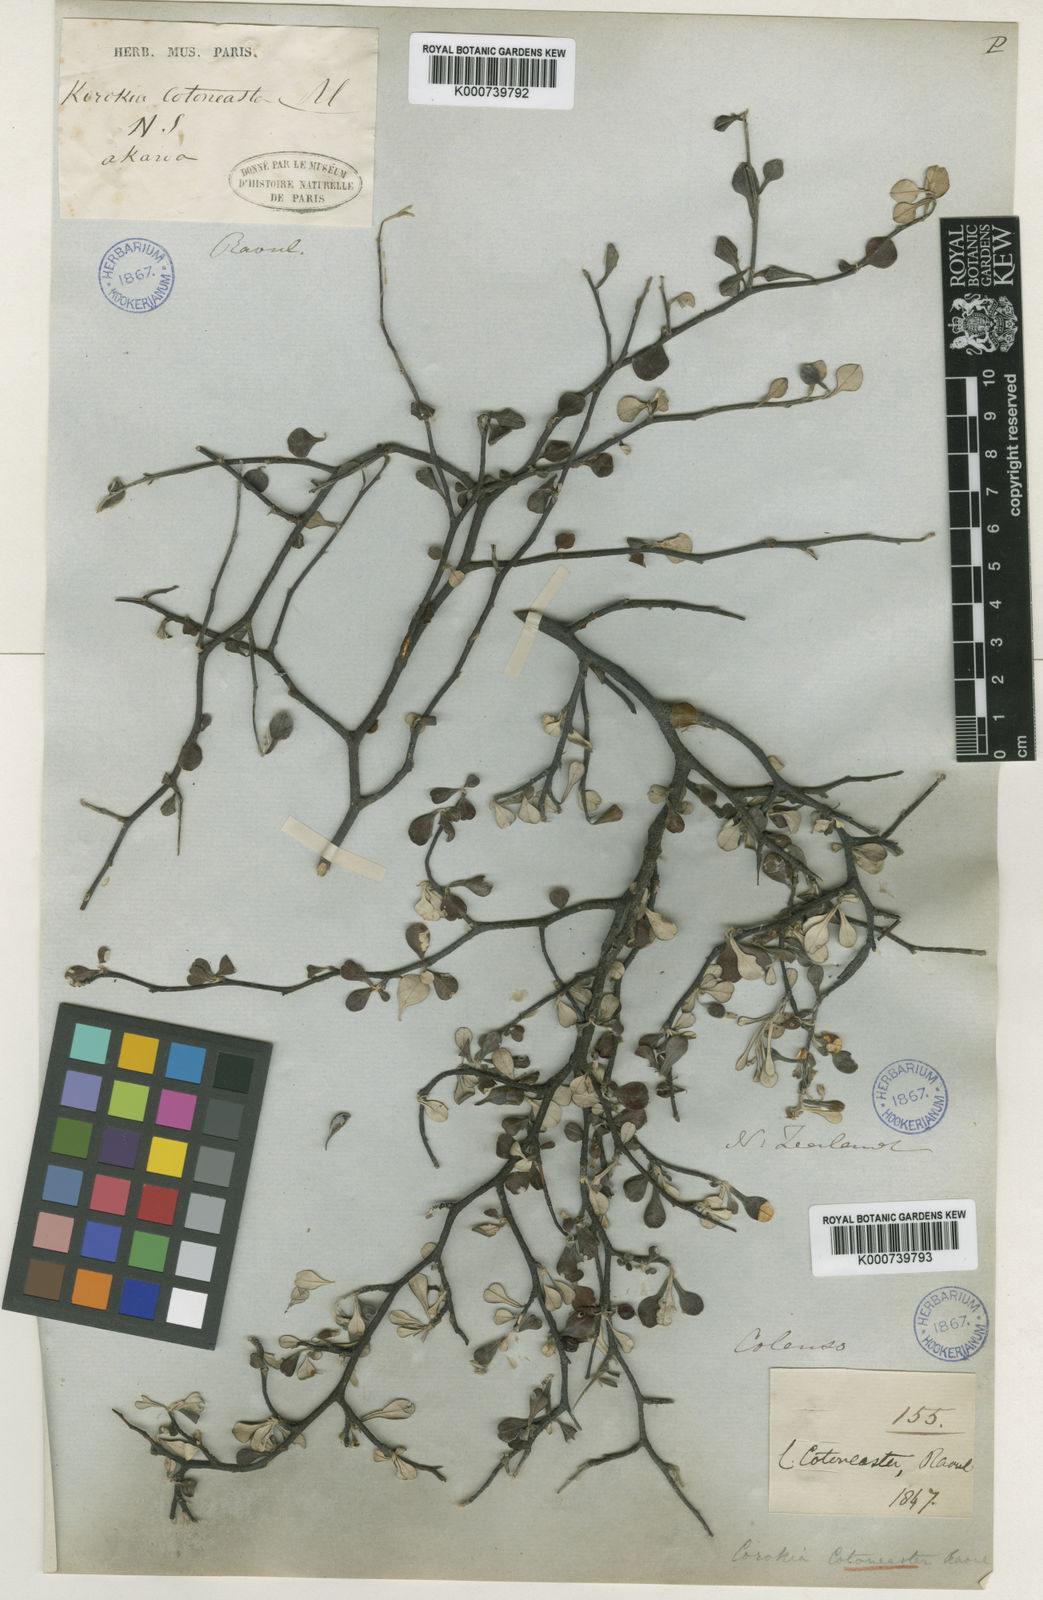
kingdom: Plantae
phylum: Tracheophyta
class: Magnoliopsida
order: Asterales
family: Argophyllaceae
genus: Corokia
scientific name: Corokia cotoneaster
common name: Wire nettingbush
